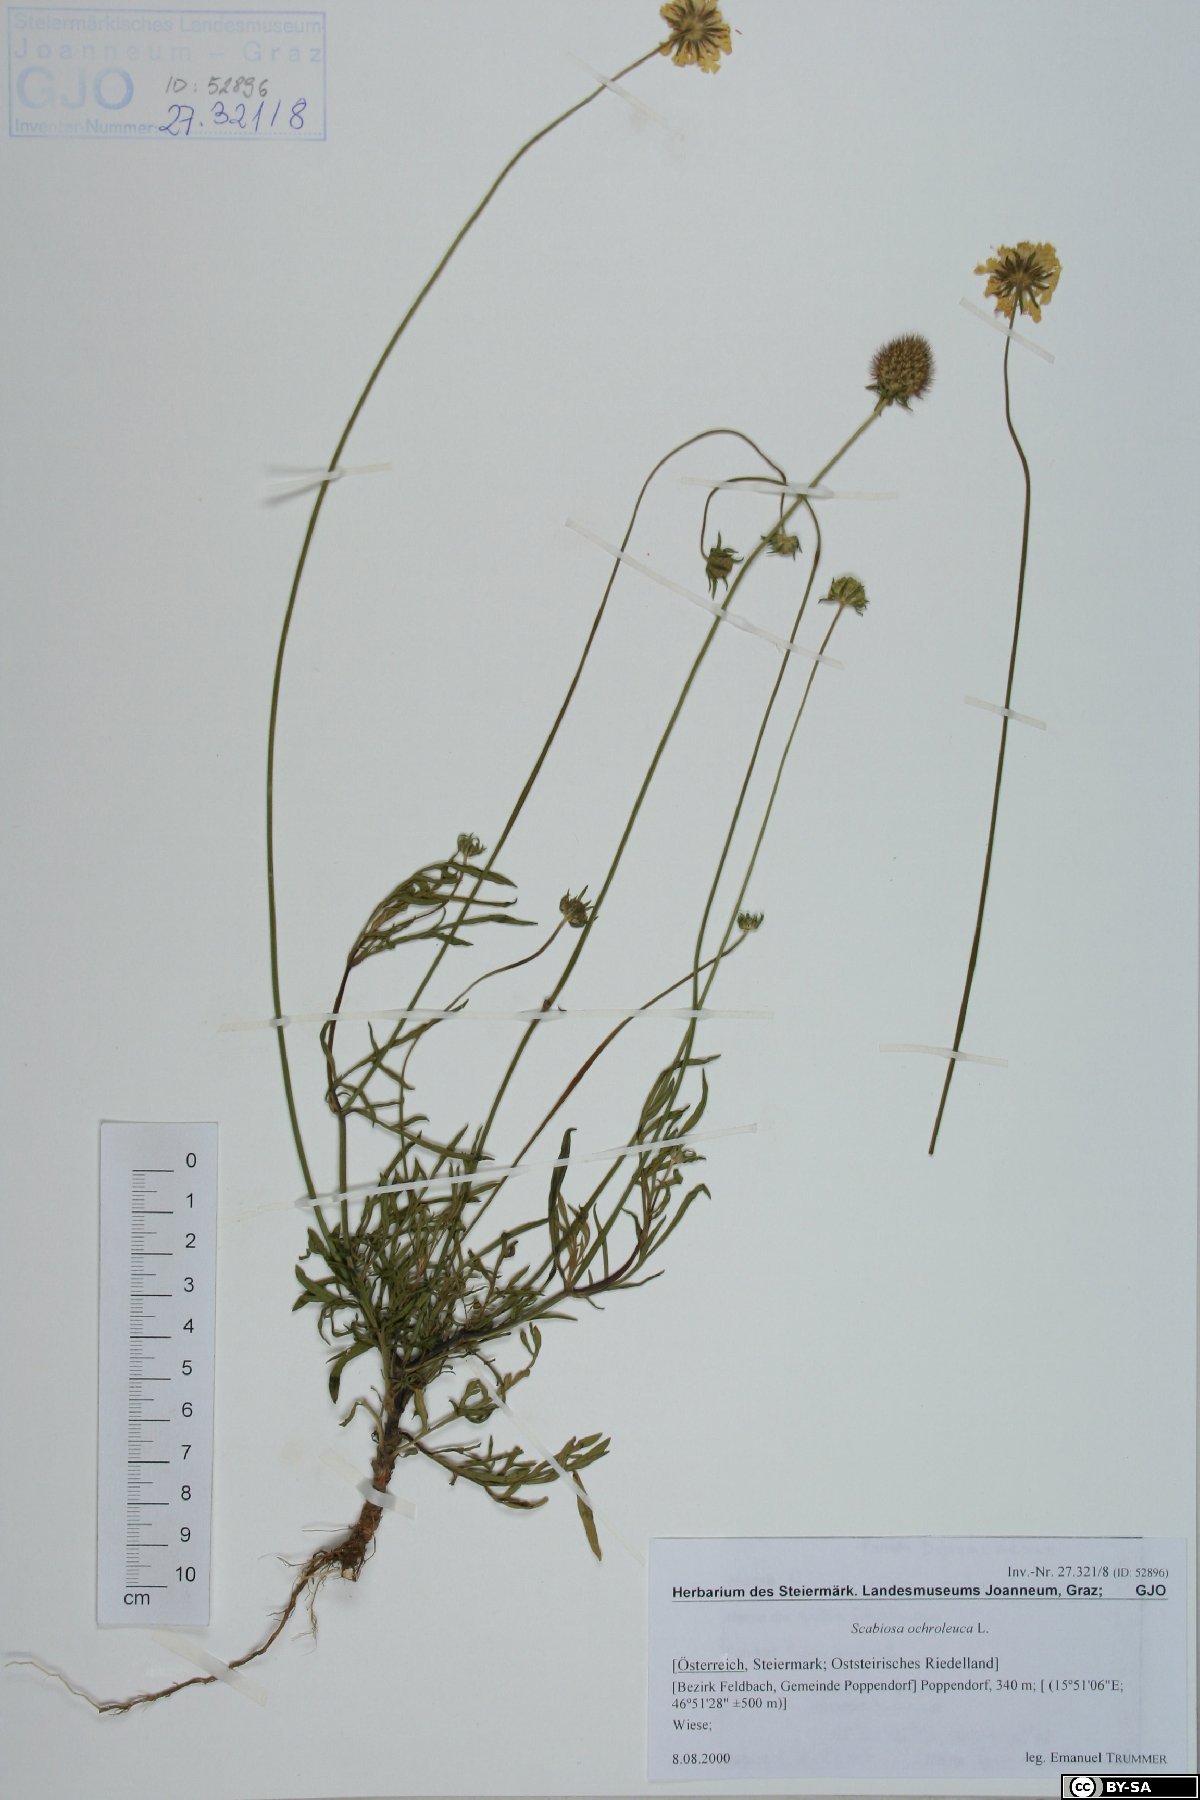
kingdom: Plantae
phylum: Tracheophyta
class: Magnoliopsida
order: Dipsacales
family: Caprifoliaceae
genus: Scabiosa
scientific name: Scabiosa ochroleuca
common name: Cream pincushions
